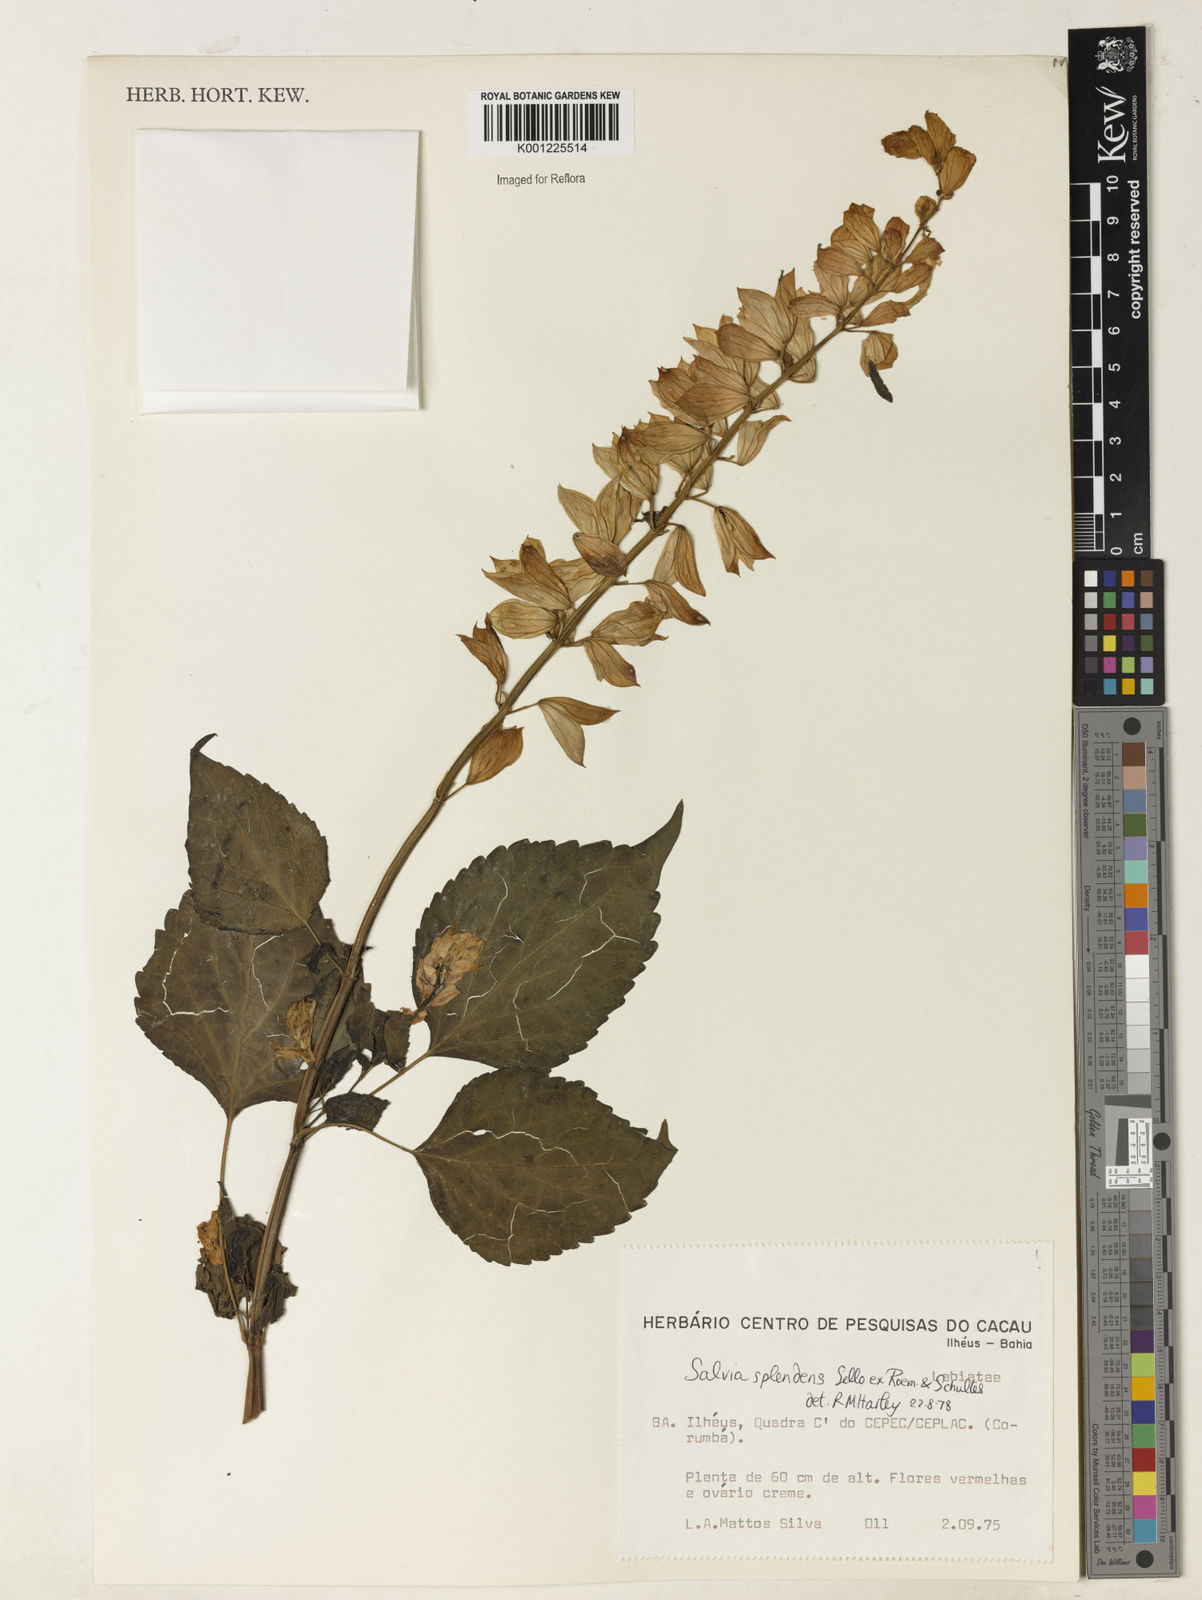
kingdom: Plantae
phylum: Tracheophyta
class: Magnoliopsida
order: Lamiales
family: Lamiaceae
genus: Salvia
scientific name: Salvia
